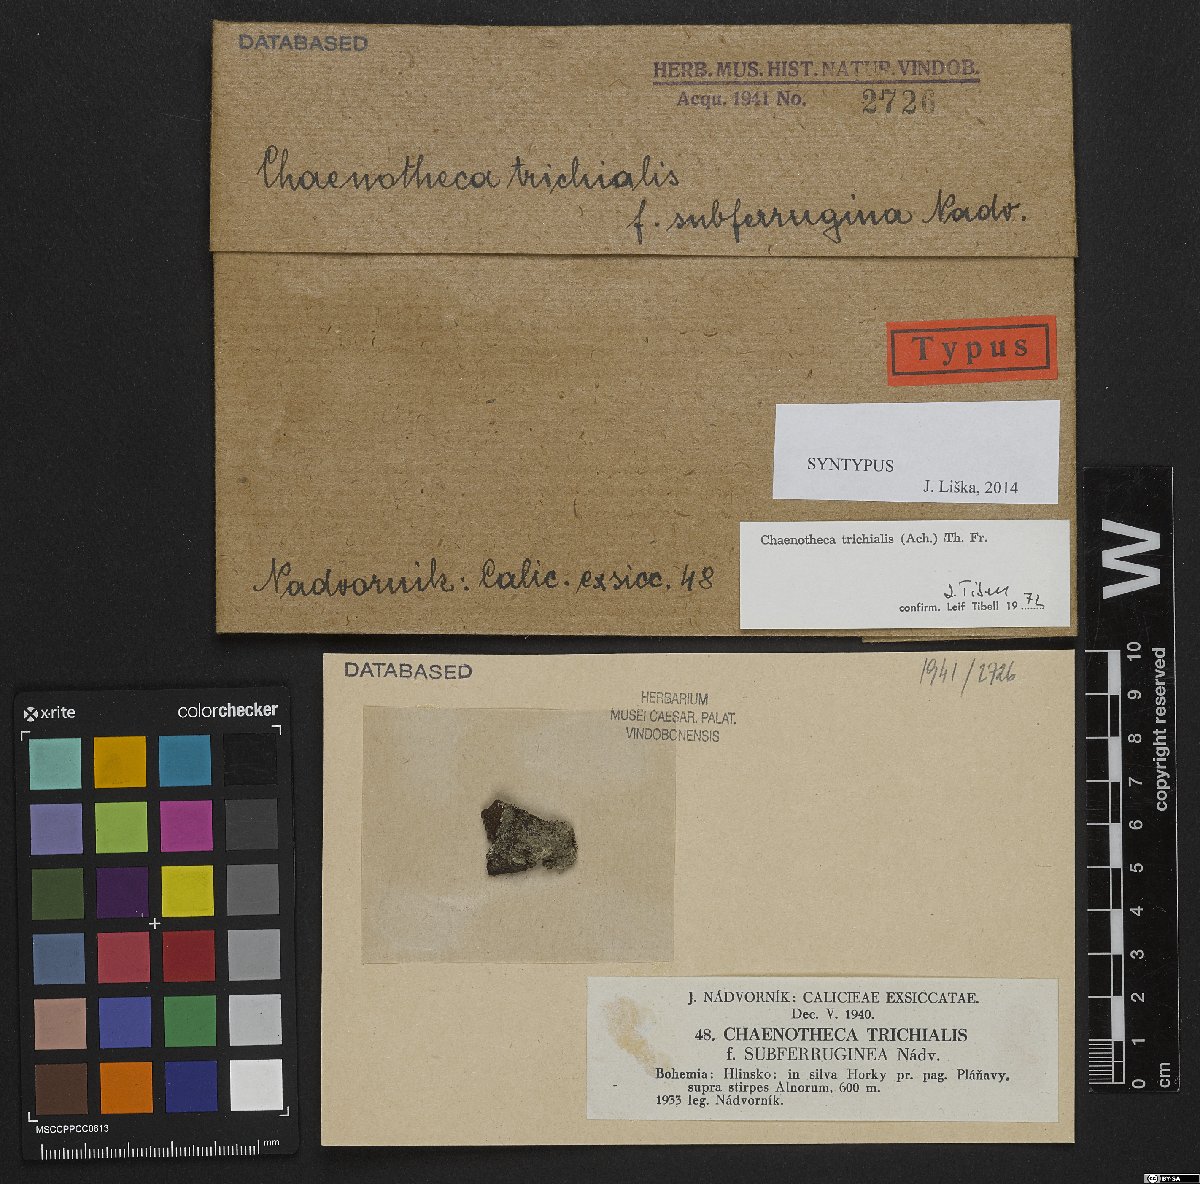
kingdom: Fungi
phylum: Ascomycota
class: Coniocybomycetes
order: Coniocybales
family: Coniocybaceae
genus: Chaenotheca
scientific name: Chaenotheca trichialis
